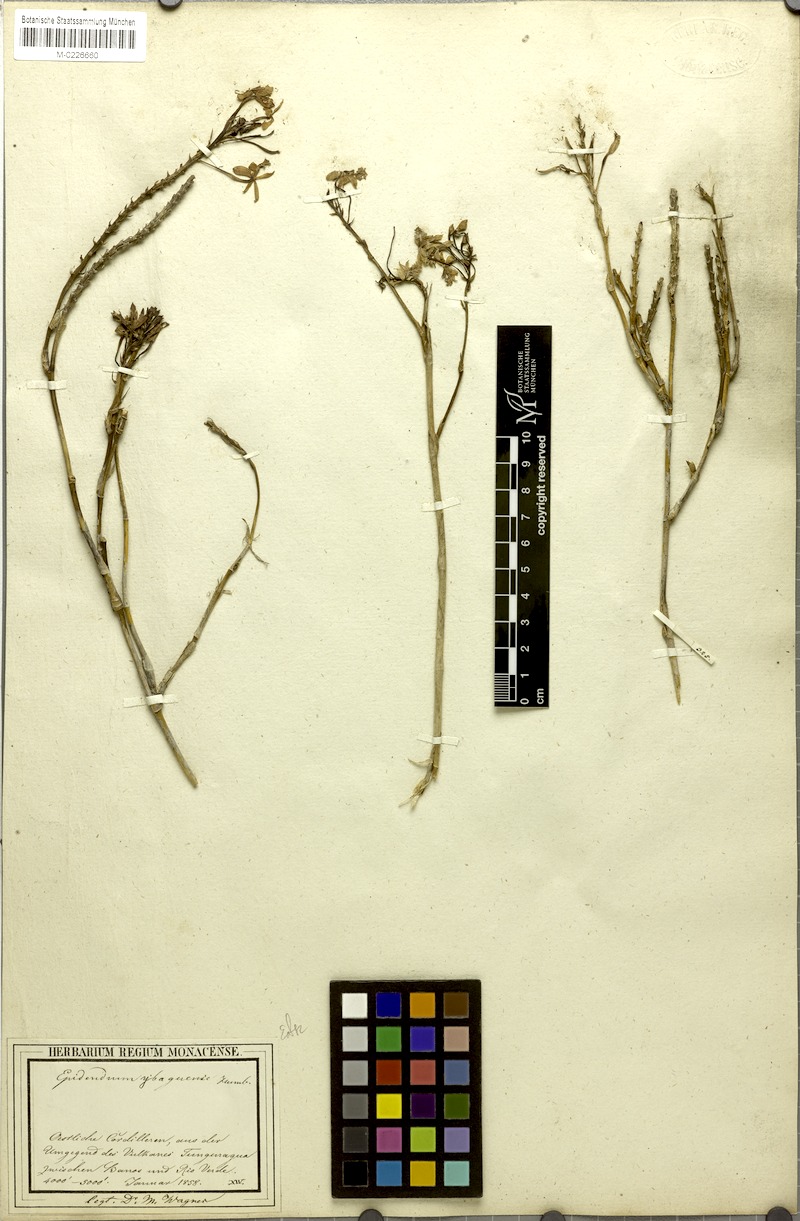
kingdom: Plantae
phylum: Tracheophyta
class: Liliopsida
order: Asparagales
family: Orchidaceae
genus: Epidendrum
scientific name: Epidendrum ibaguense
